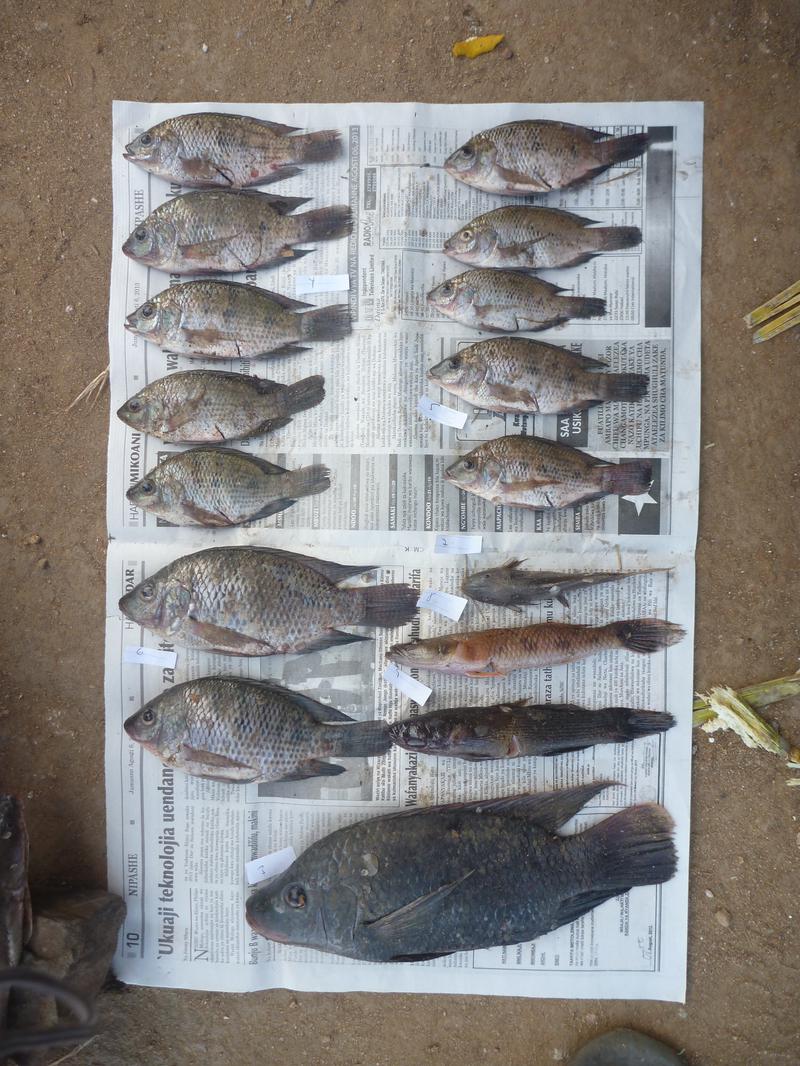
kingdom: Animalia
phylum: Chordata
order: Perciformes
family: Cichlidae
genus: Oreochromis
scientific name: Oreochromis urolepis
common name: Wami tilapia
